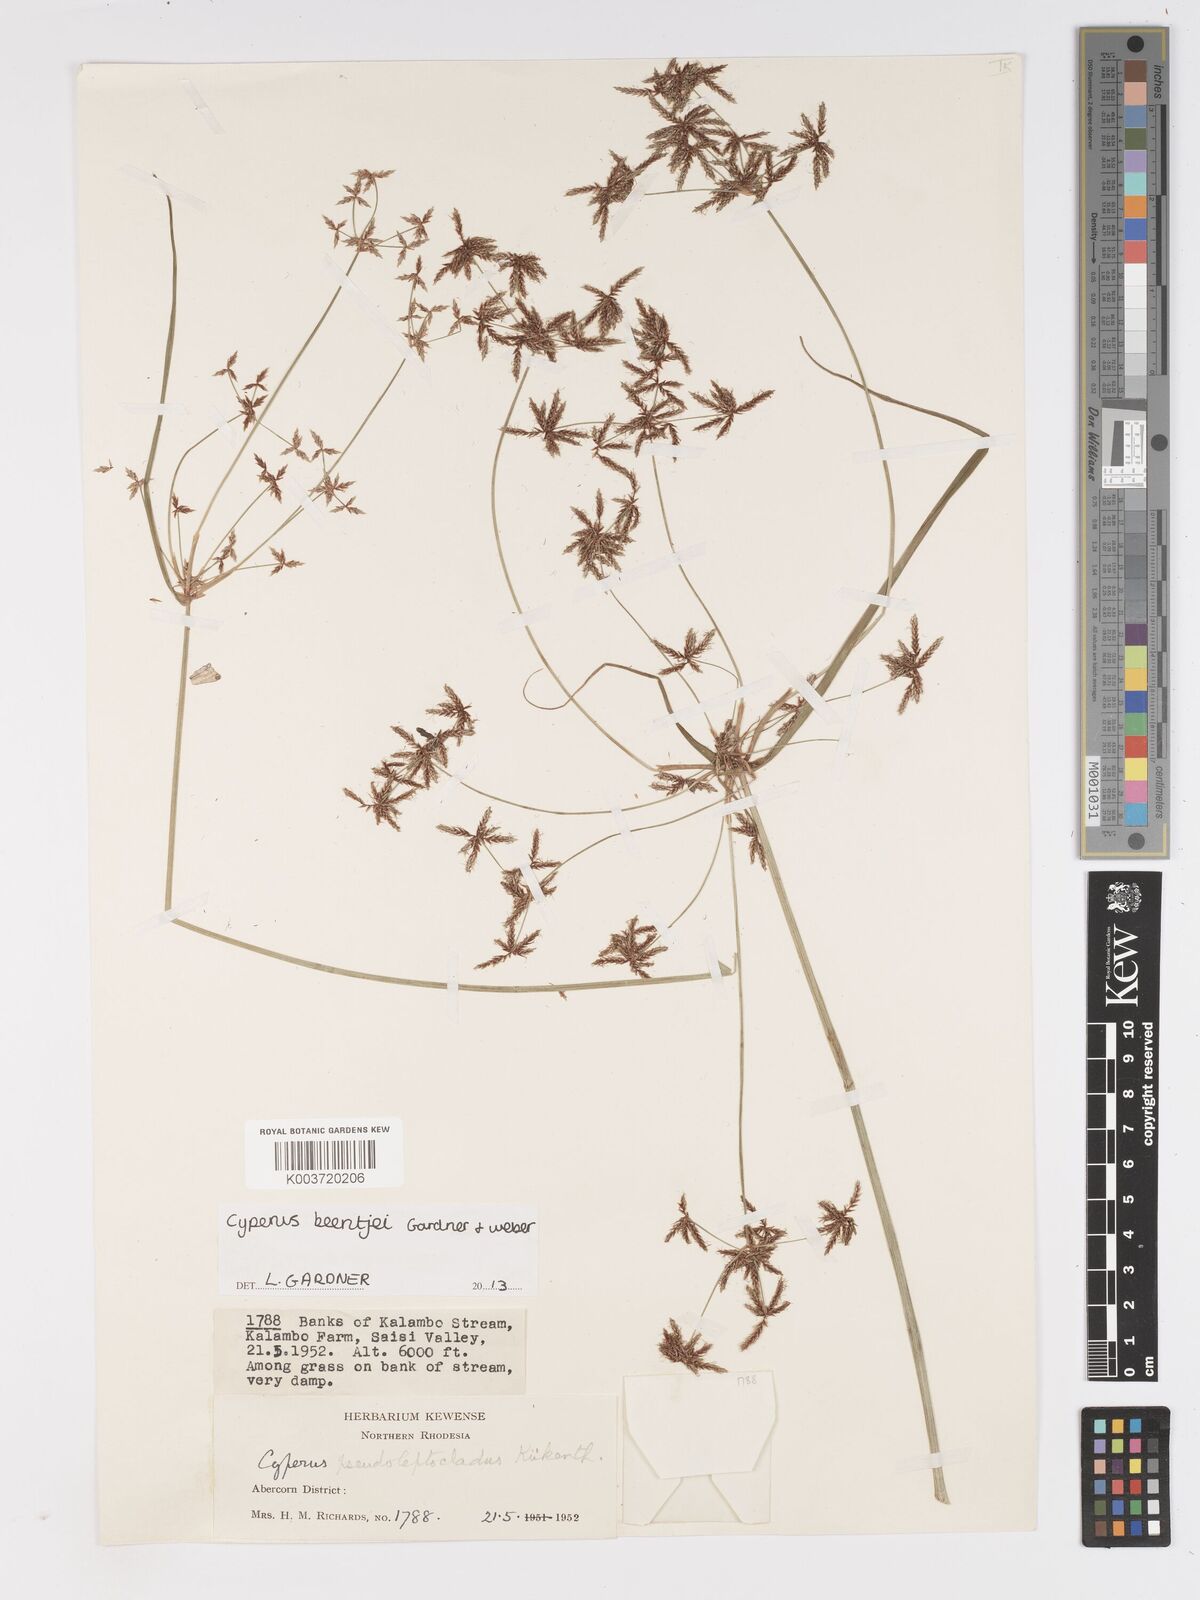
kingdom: Plantae
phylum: Tracheophyta
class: Liliopsida
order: Poales
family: Cyperaceae
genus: Cyperus
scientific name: Cyperus beentjei
